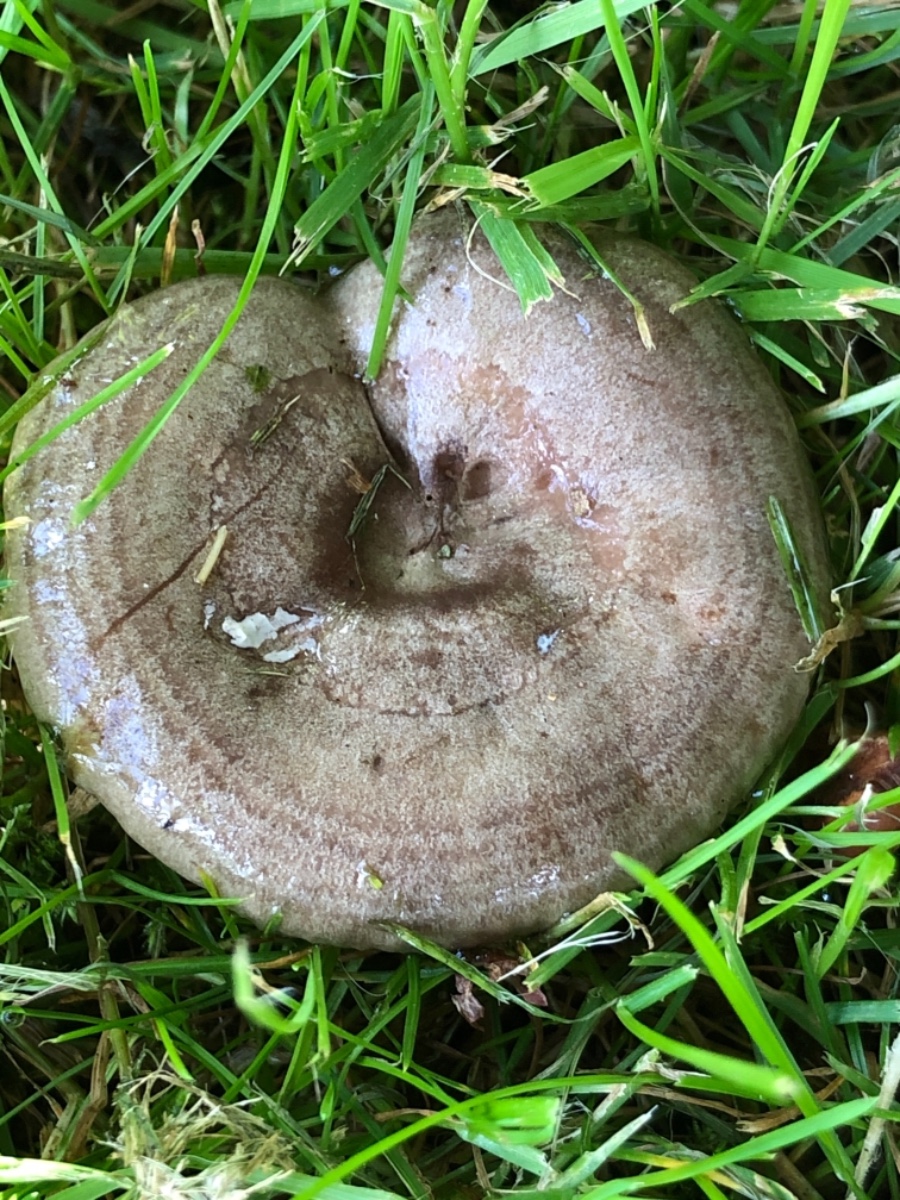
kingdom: Fungi
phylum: Basidiomycota
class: Agaricomycetes
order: Russulales
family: Russulaceae
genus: Lactarius
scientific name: Lactarius pyrogalus
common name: hassel-mælkehat
